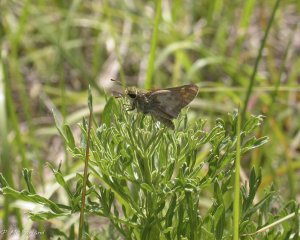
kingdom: Animalia
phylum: Arthropoda
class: Insecta
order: Lepidoptera
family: Hesperiidae
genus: Atalopedes
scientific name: Atalopedes campestris
